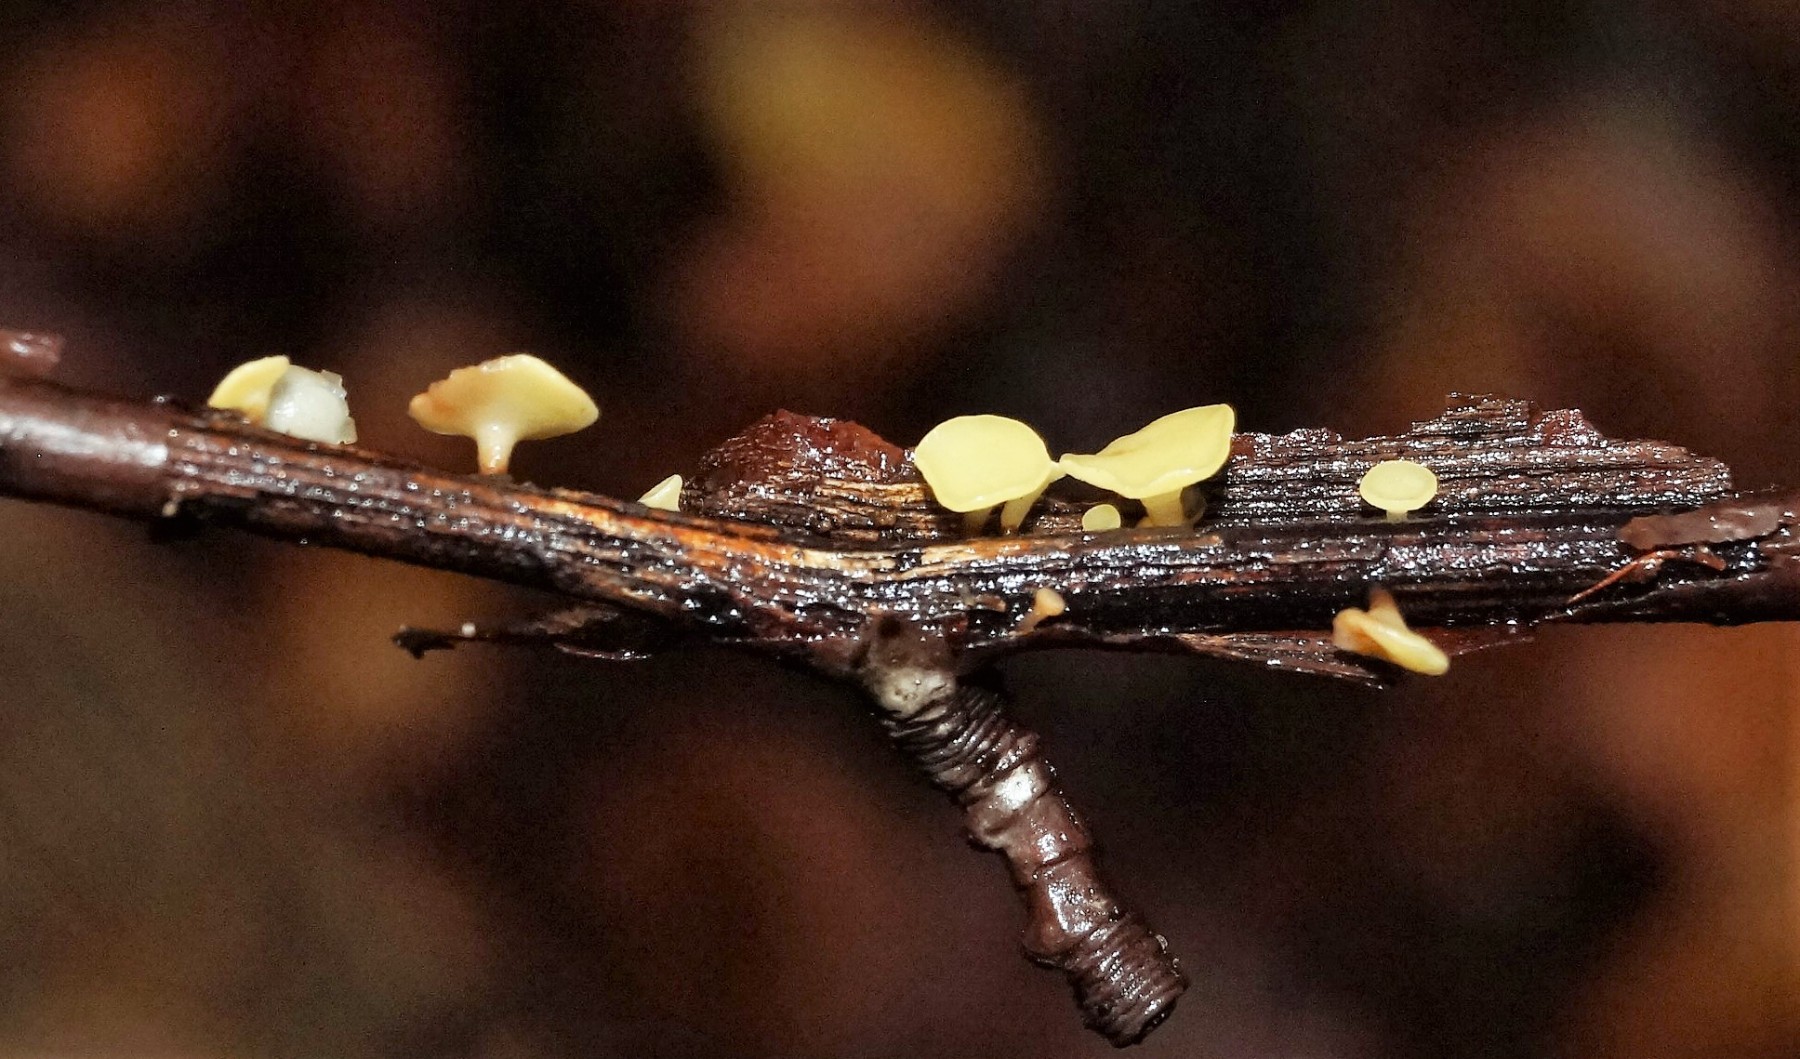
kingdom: Fungi
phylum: Ascomycota
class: Leotiomycetes
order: Helotiales
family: Helotiaceae
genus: Hymenoscyphus
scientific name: Hymenoscyphus
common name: stilkskive
